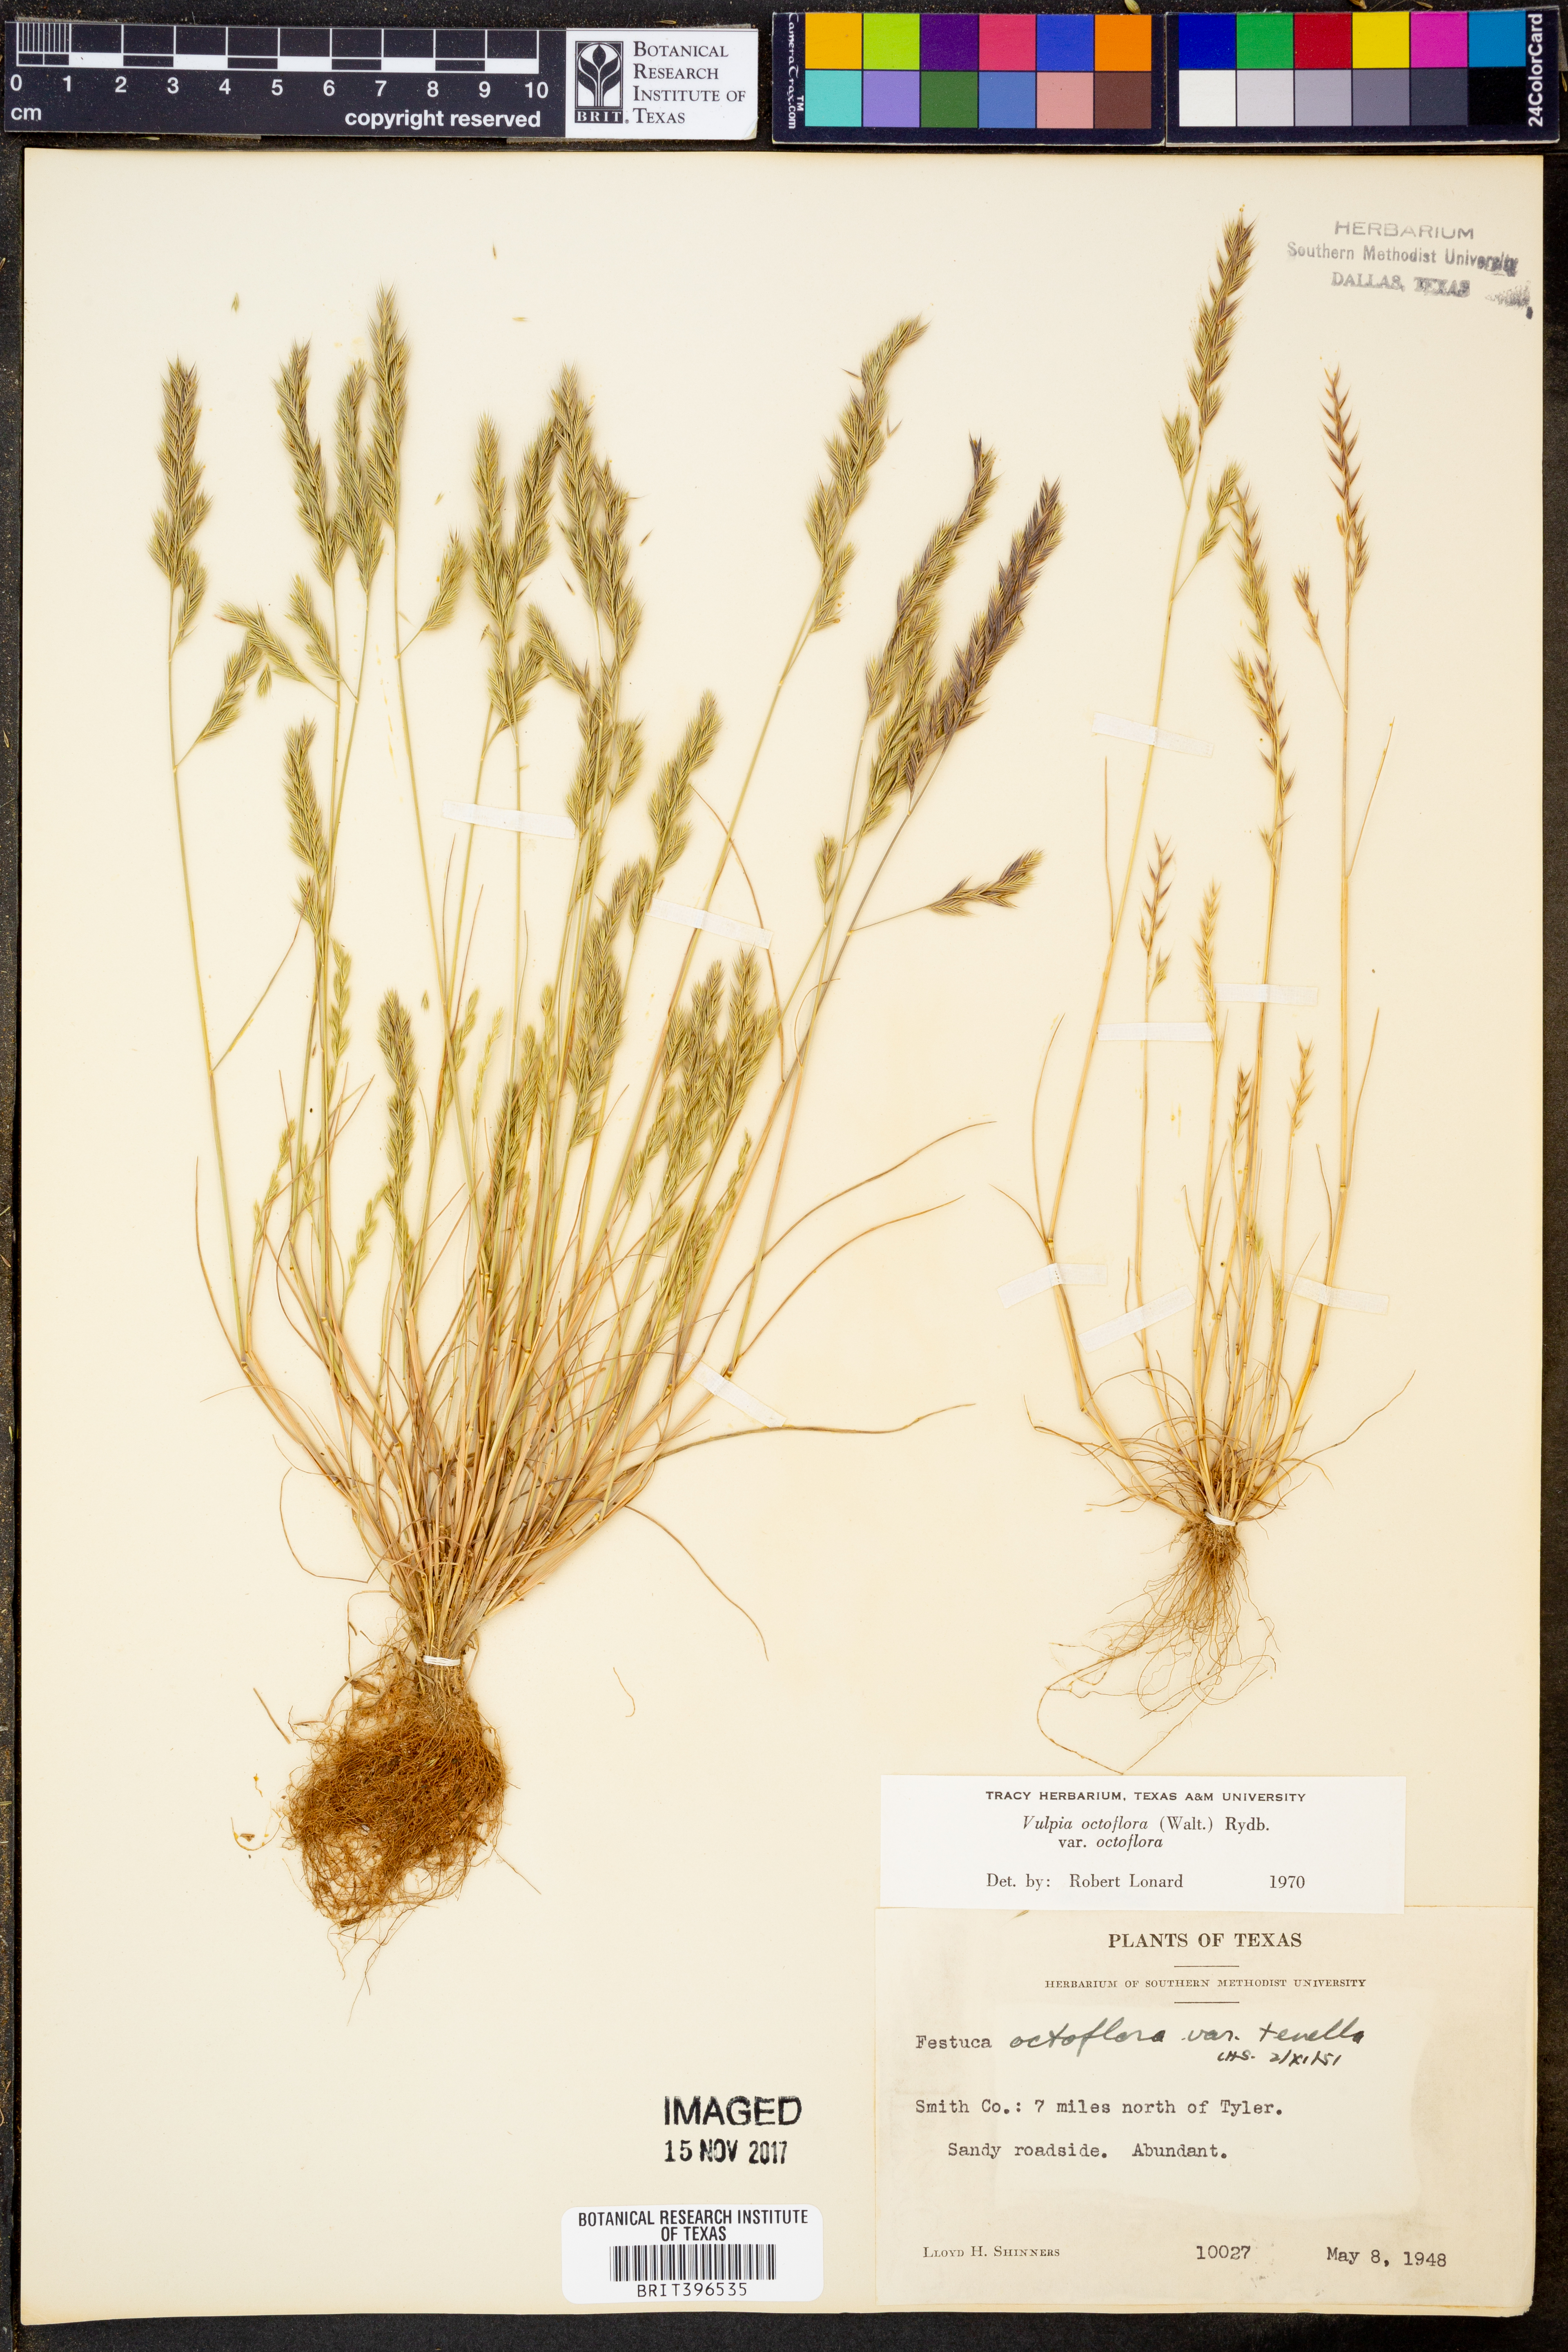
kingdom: Plantae
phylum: Tracheophyta
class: Liliopsida
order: Poales
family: Poaceae
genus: Festuca
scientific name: Festuca octoflora
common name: Sixweeks grass
